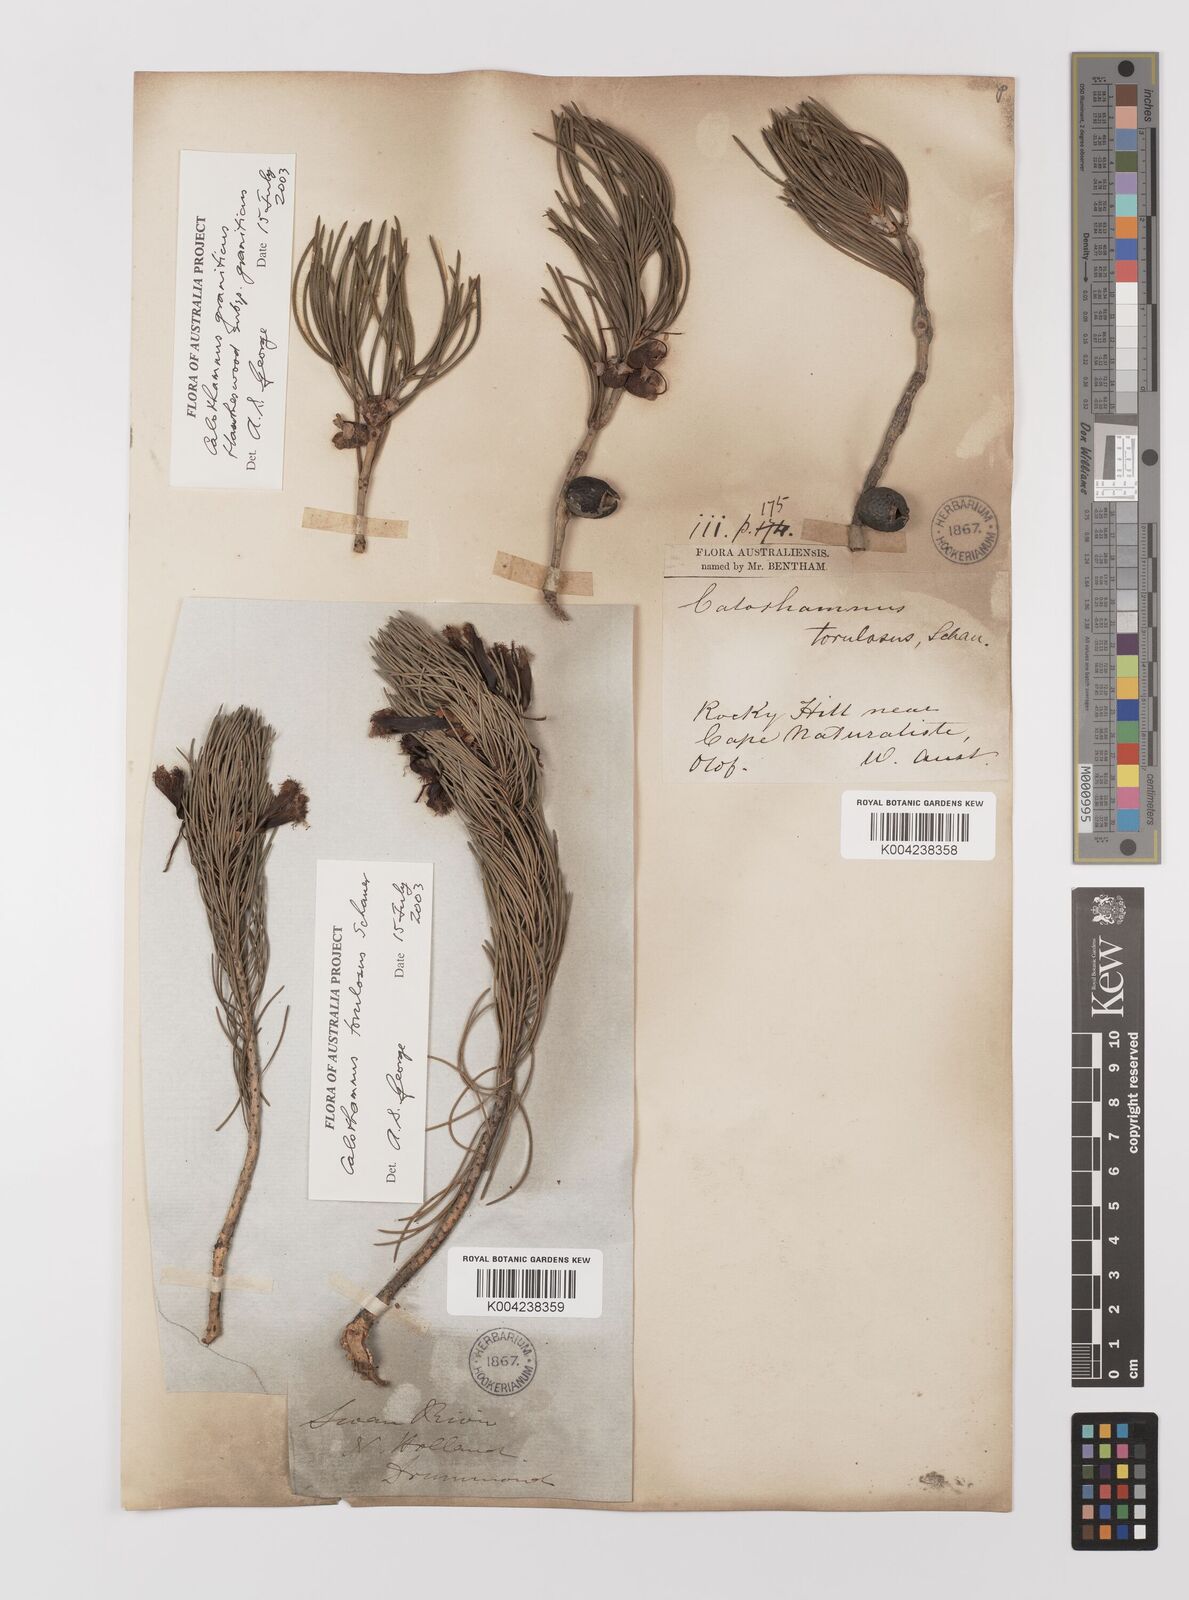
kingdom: Plantae
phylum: Tracheophyta
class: Magnoliopsida
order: Myrtales
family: Myrtaceae
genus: Melaleuca
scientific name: Melaleuca granitica
